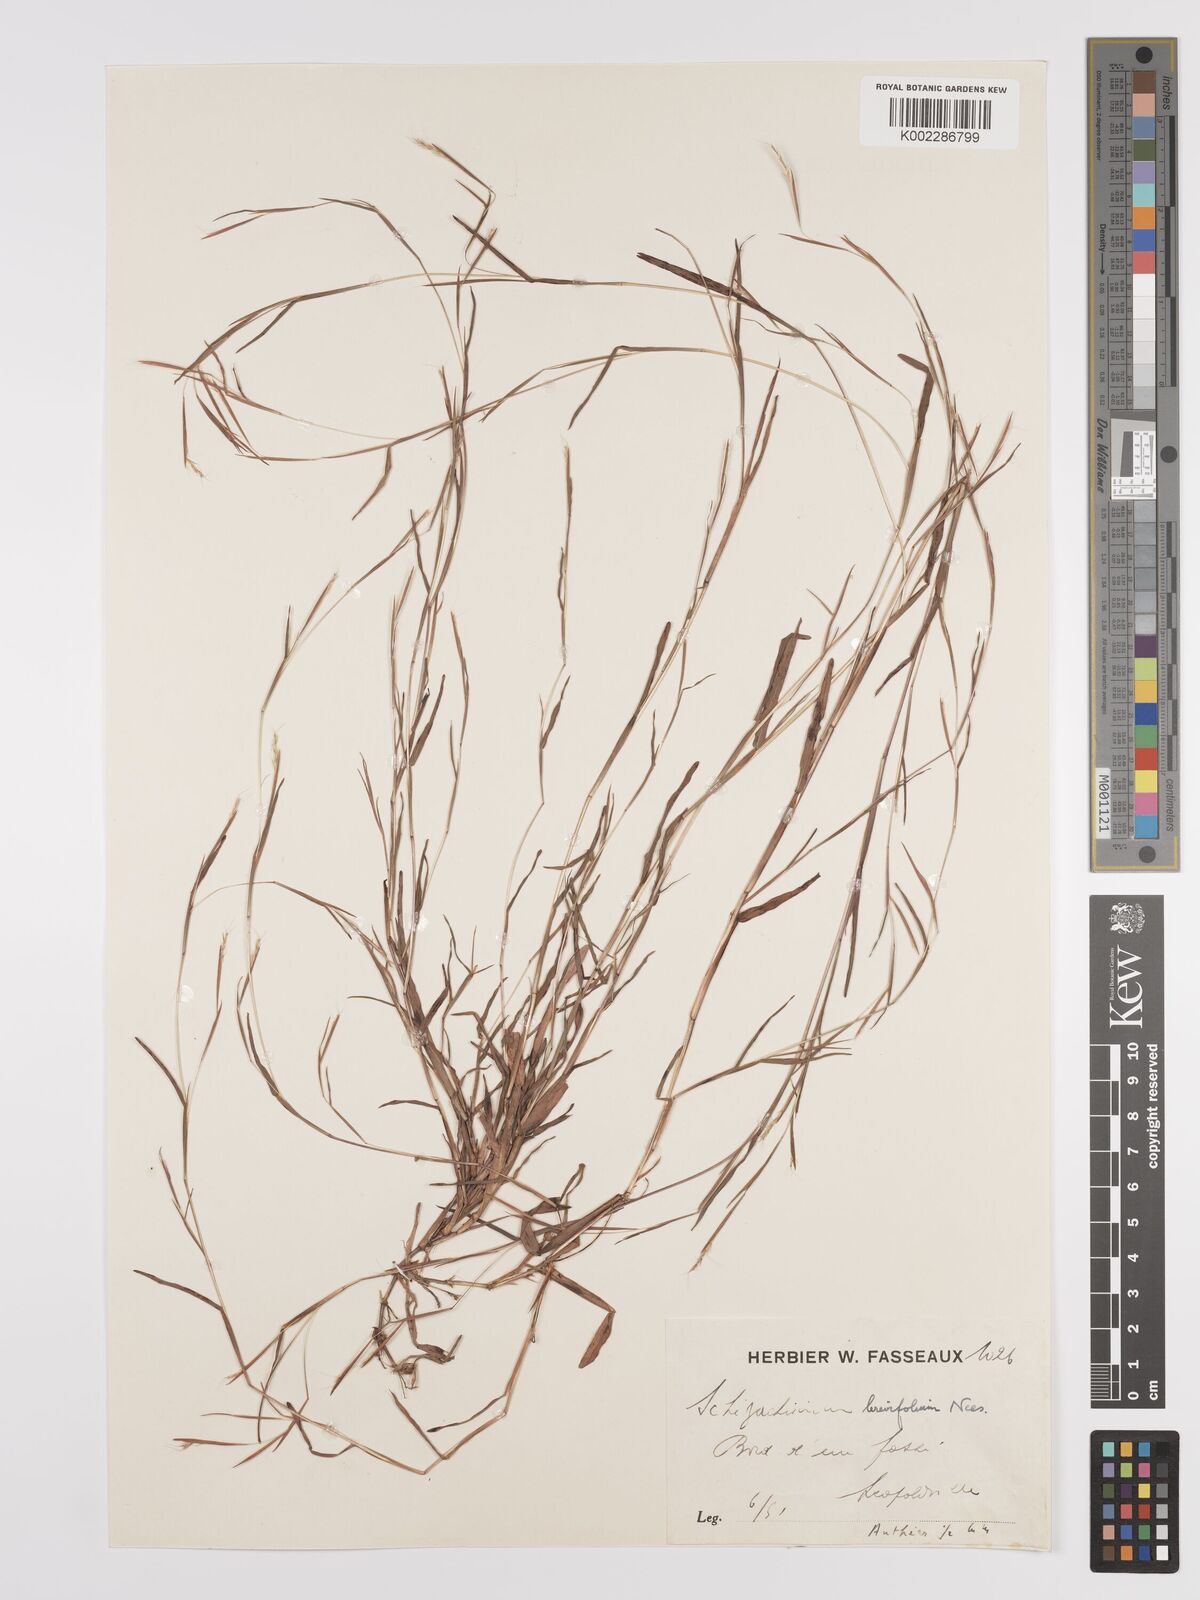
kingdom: Plantae
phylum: Tracheophyta
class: Liliopsida
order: Poales
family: Poaceae
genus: Schizachyrium
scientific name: Schizachyrium brevifolium
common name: Serillo dulce
